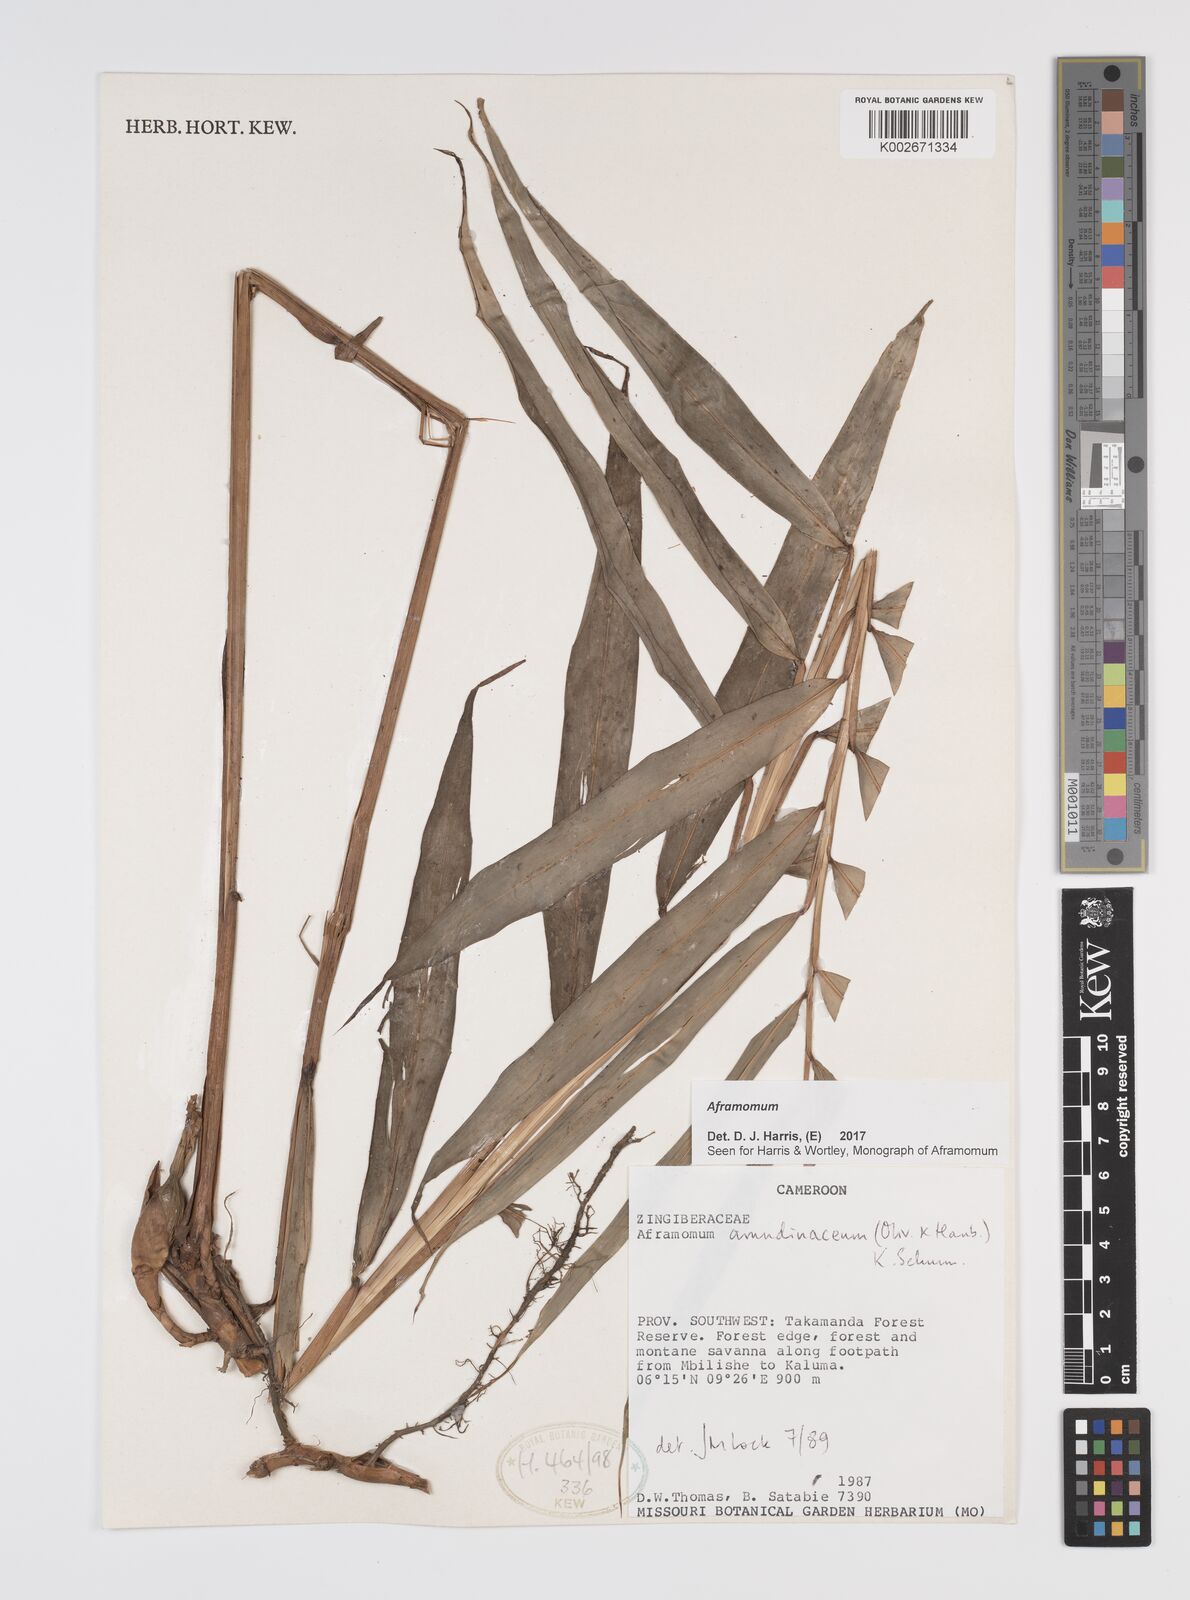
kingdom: Plantae
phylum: Tracheophyta
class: Liliopsida
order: Zingiberales
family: Zingiberaceae
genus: Aframomum
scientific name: Aframomum
